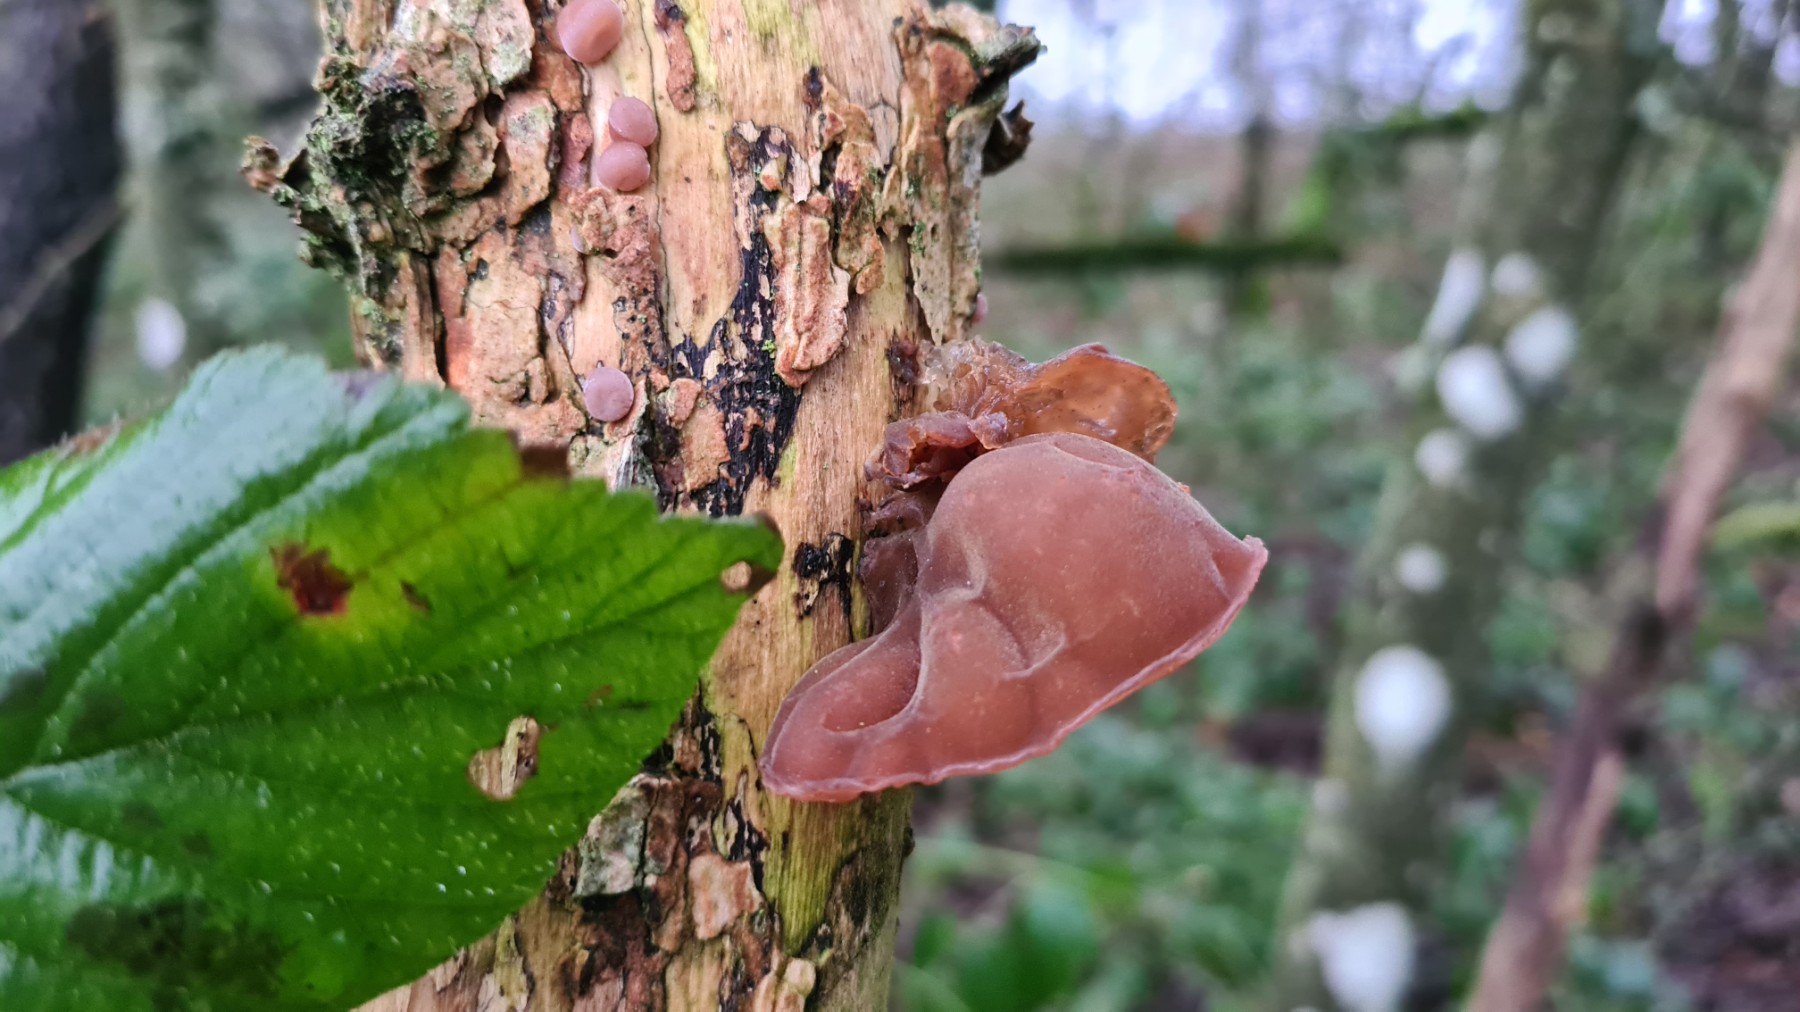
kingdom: Fungi
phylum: Basidiomycota
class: Agaricomycetes
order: Auriculariales
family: Auriculariaceae
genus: Auricularia
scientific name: Auricularia auricula-judae
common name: almindelig judasøre
